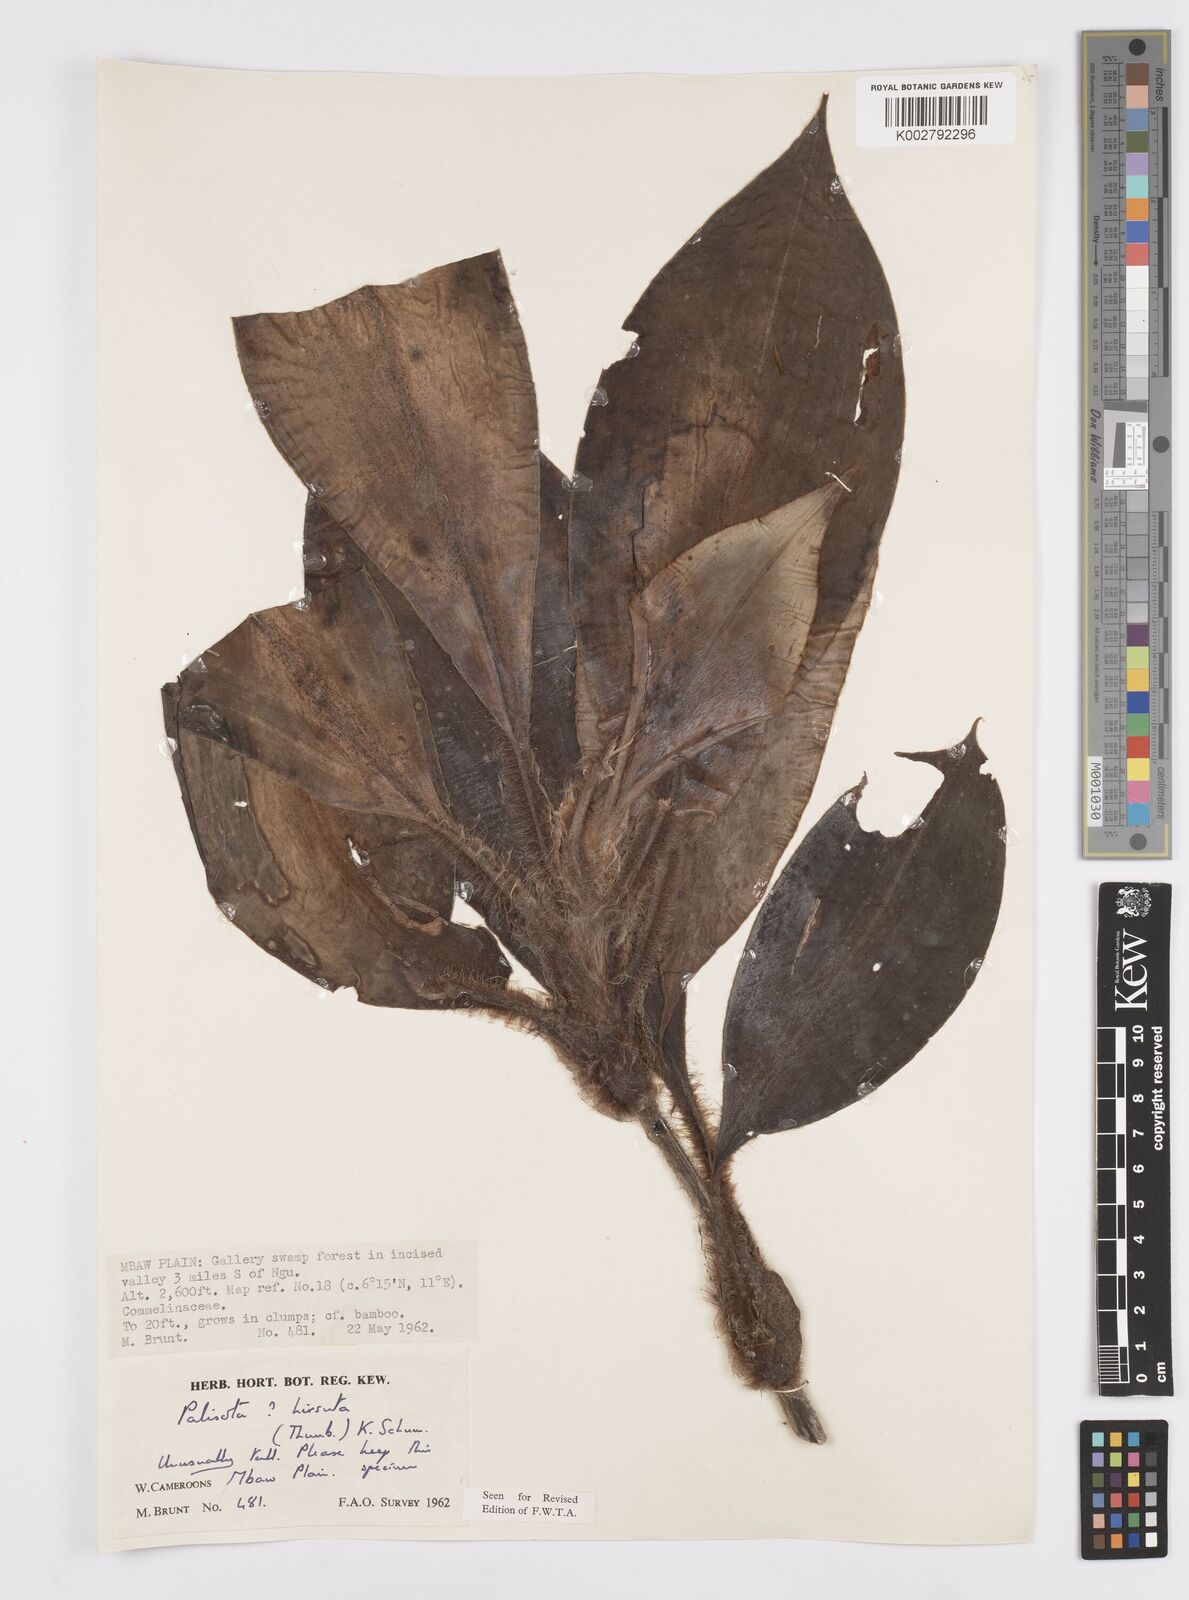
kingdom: Plantae
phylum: Tracheophyta
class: Liliopsida
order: Commelinales
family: Commelinaceae
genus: Palisota
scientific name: Palisota hirsuta
